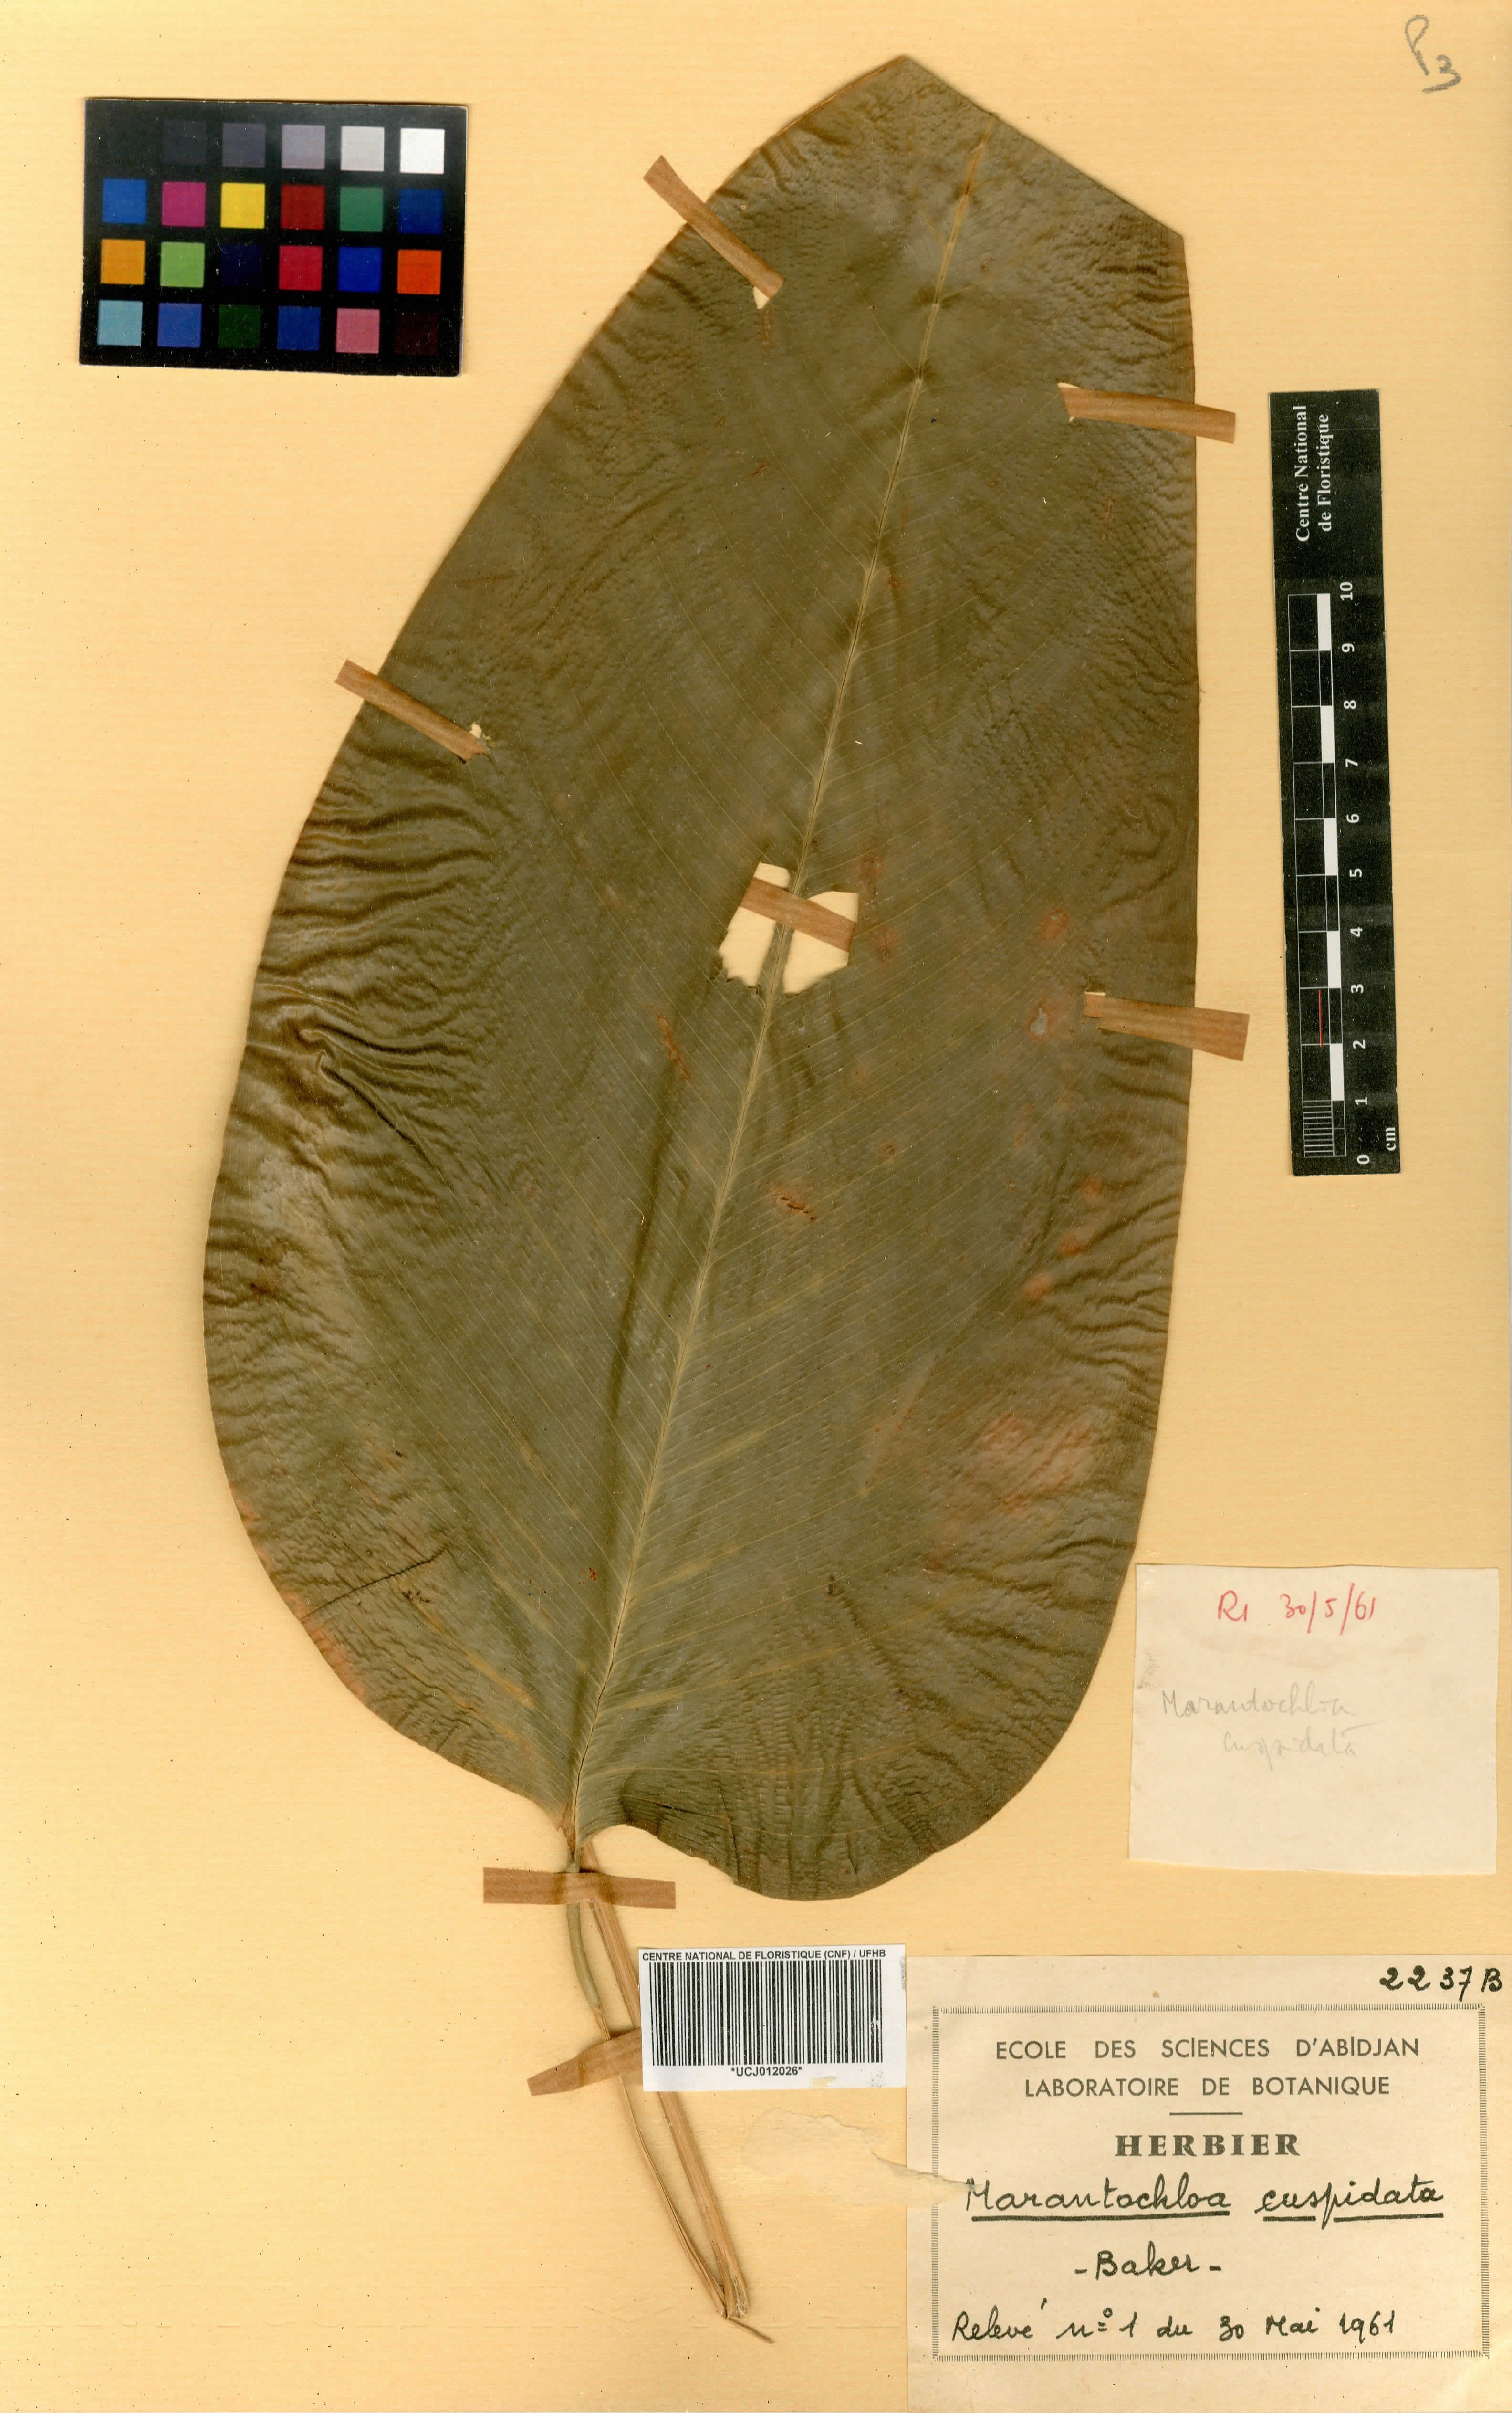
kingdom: Plantae
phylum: Tracheophyta
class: Liliopsida
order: Zingiberales
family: Marantaceae
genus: Marantochloa
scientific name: Marantochloa cuspidata
